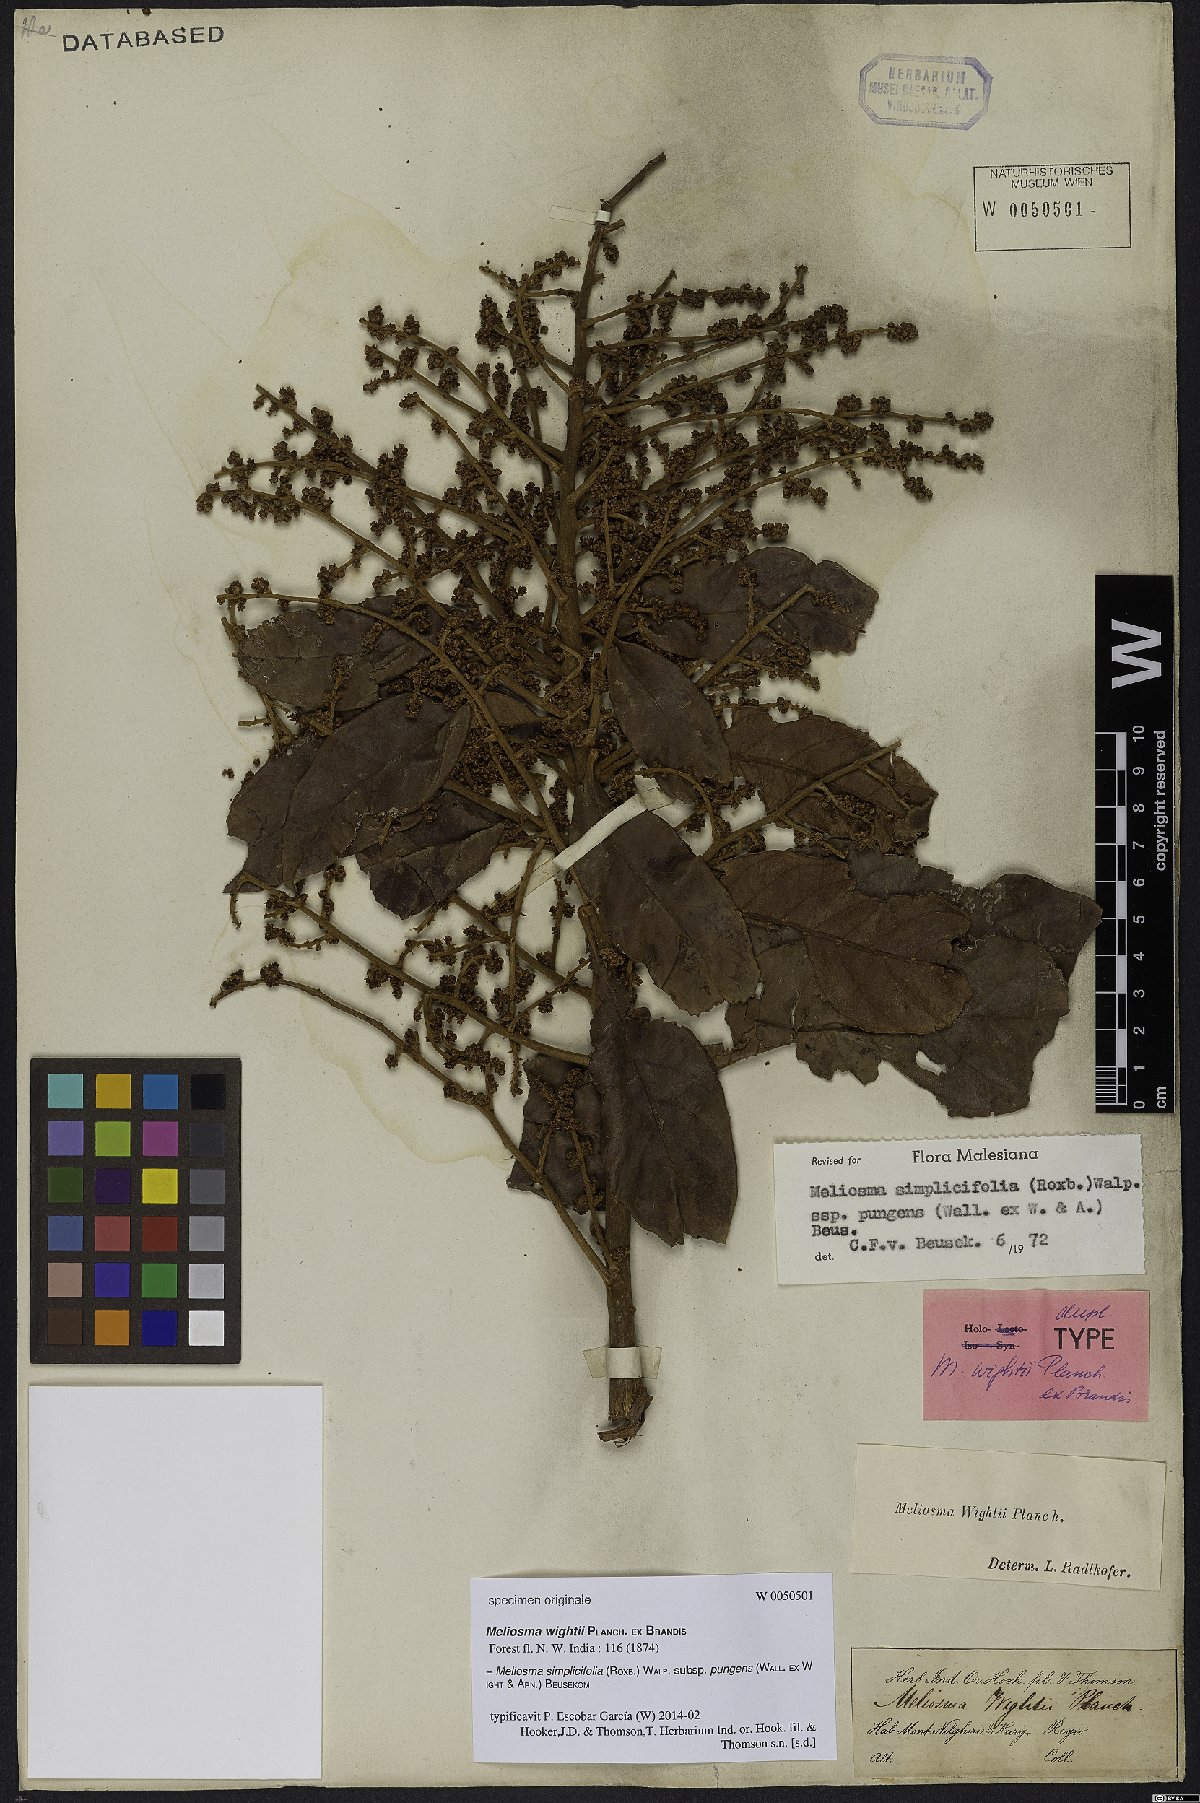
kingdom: Plantae
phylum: Tracheophyta
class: Magnoliopsida
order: Proteales
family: Sabiaceae
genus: Meliosma
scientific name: Meliosma simplicifolia
